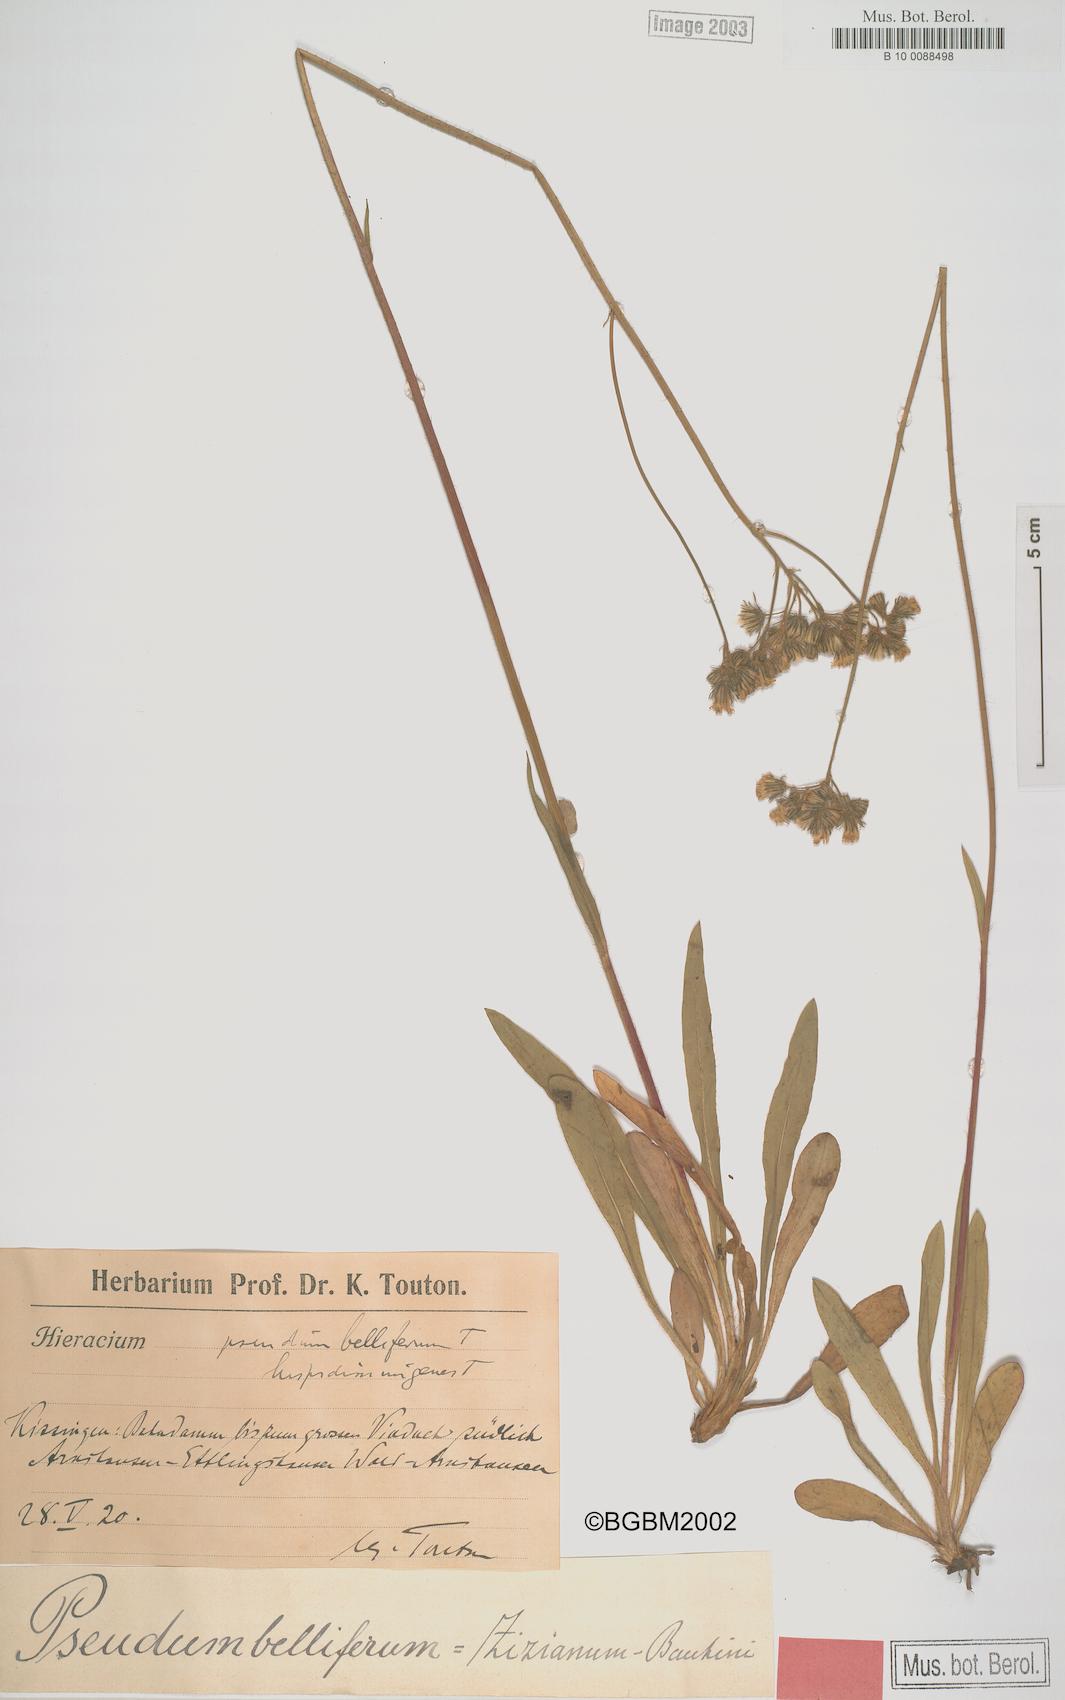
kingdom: Plantae
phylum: Tracheophyta
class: Magnoliopsida
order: Asterales
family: Asteraceae
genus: Pilosella
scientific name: Pilosella bauhini
